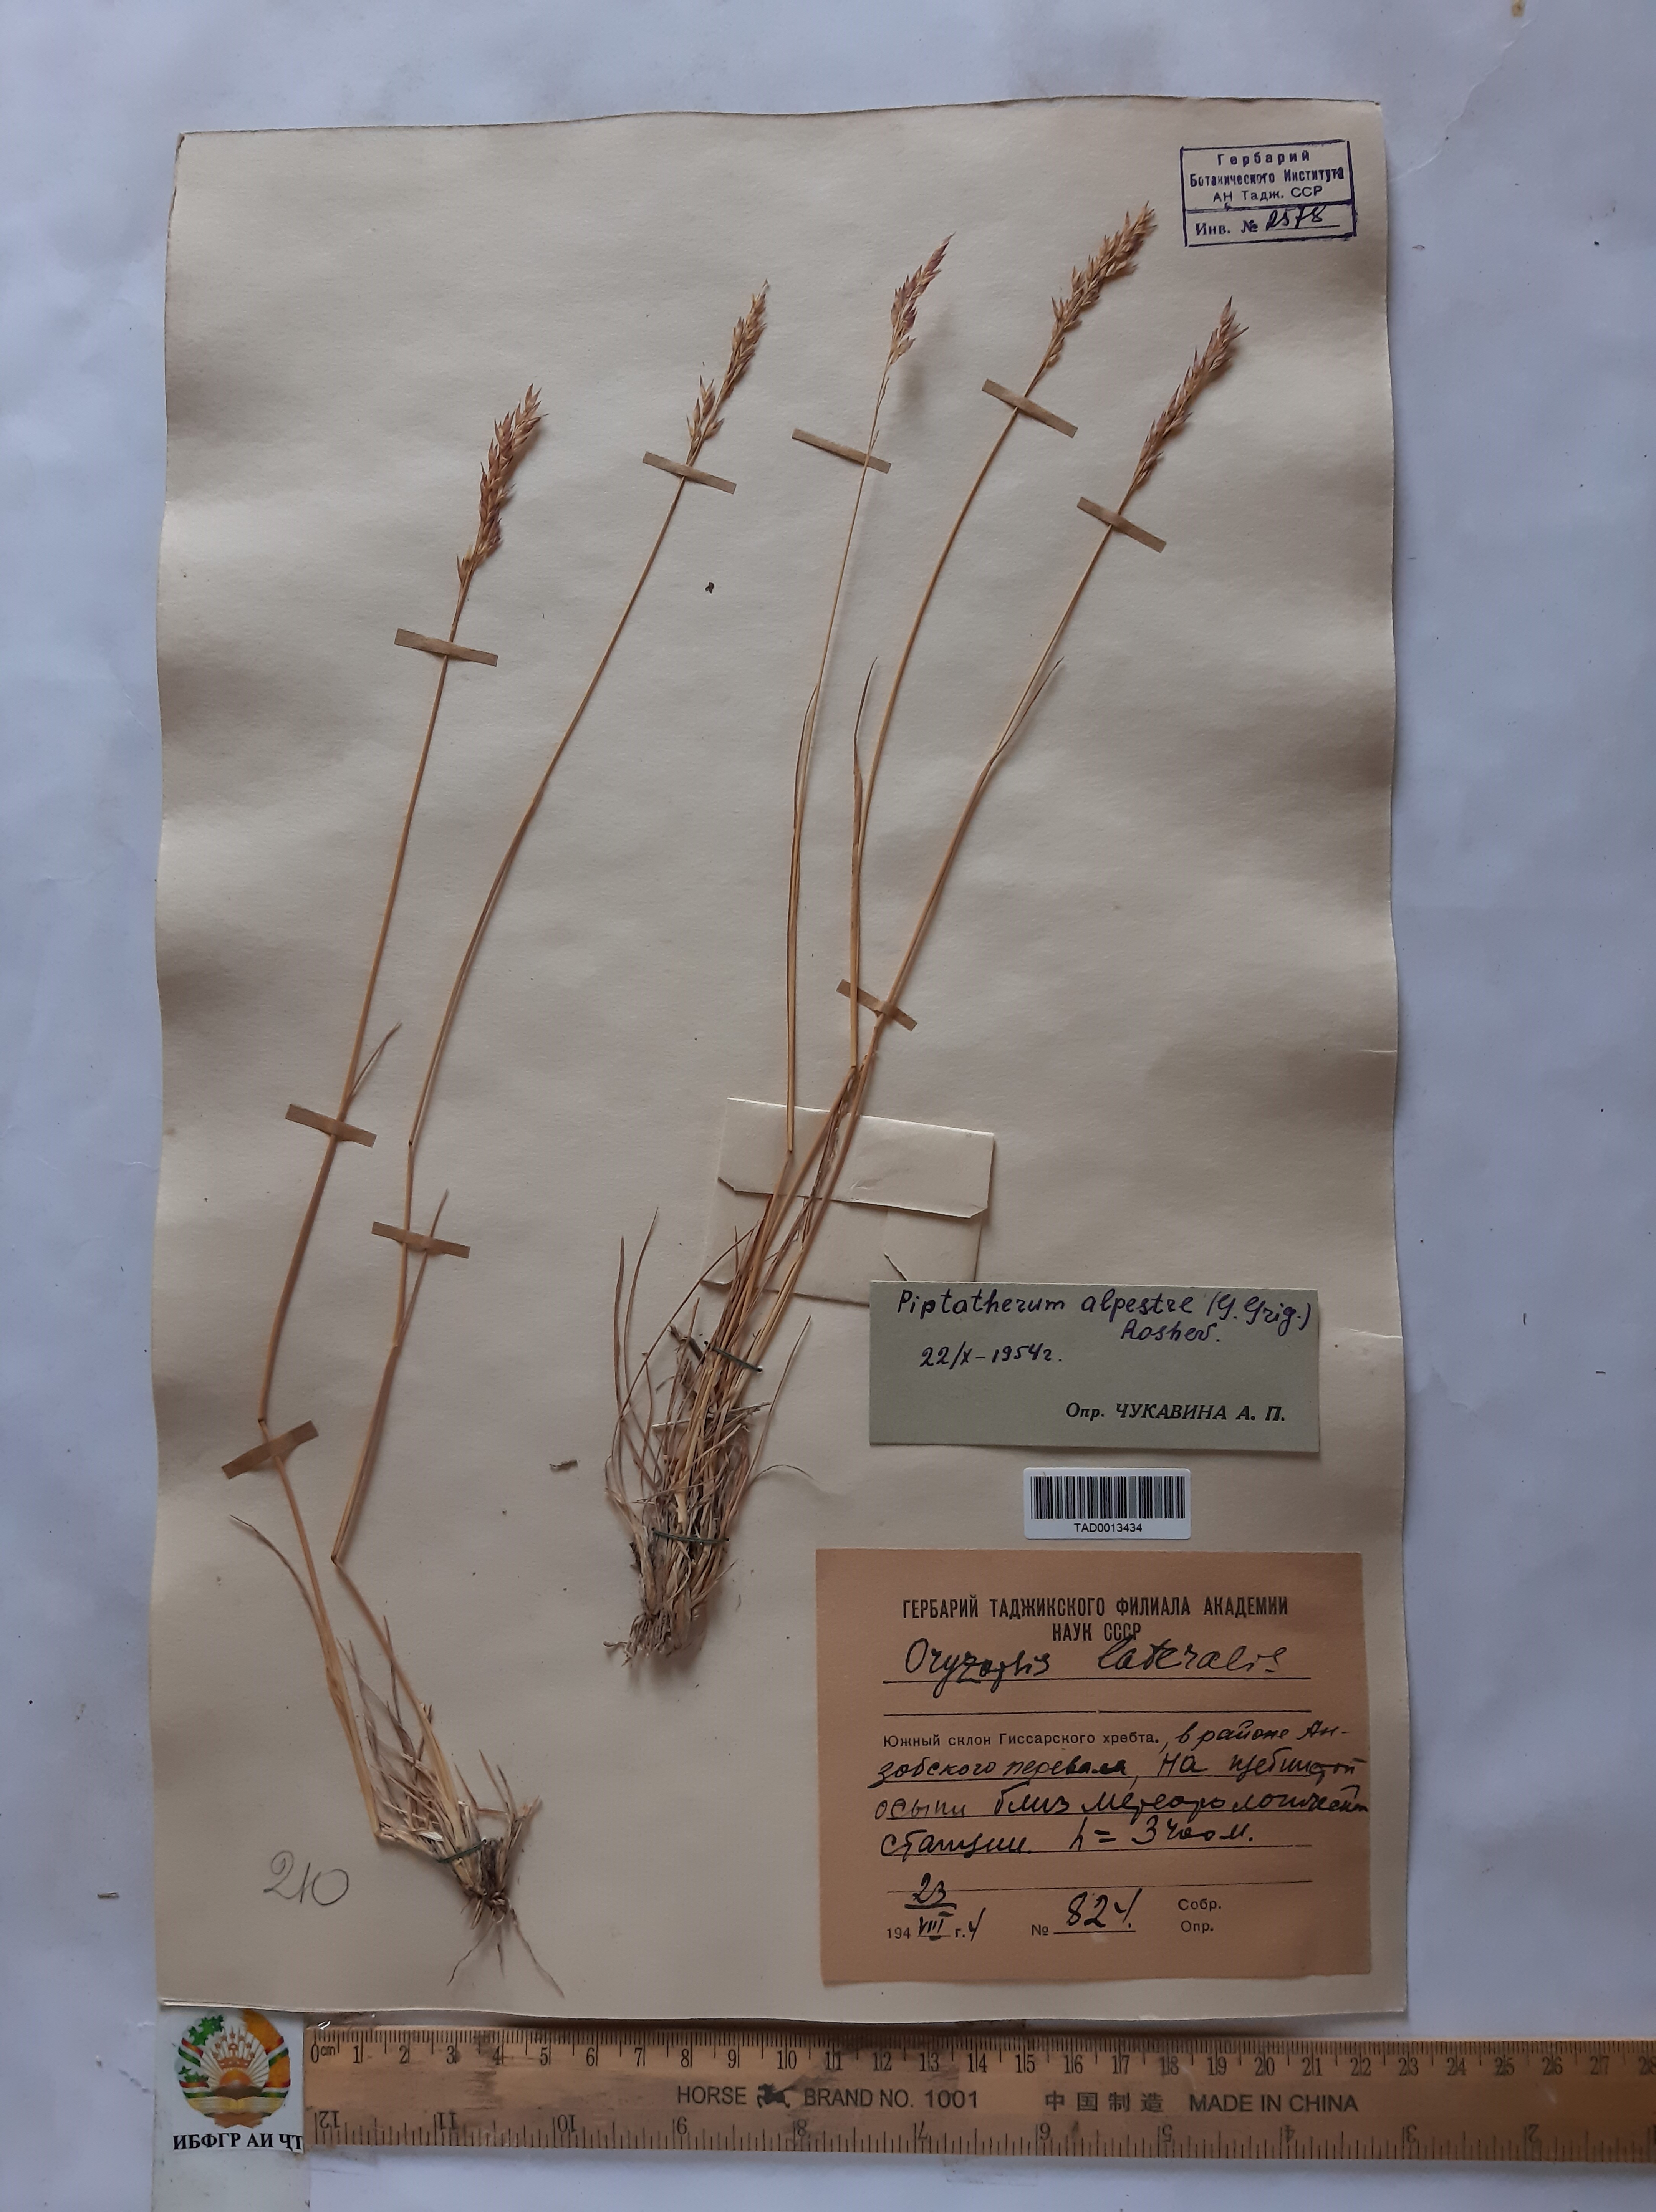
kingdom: Plantae
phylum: Tracheophyta
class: Liliopsida
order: Poales
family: Poaceae
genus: Piptatherum
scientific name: Piptatherum alpestre
